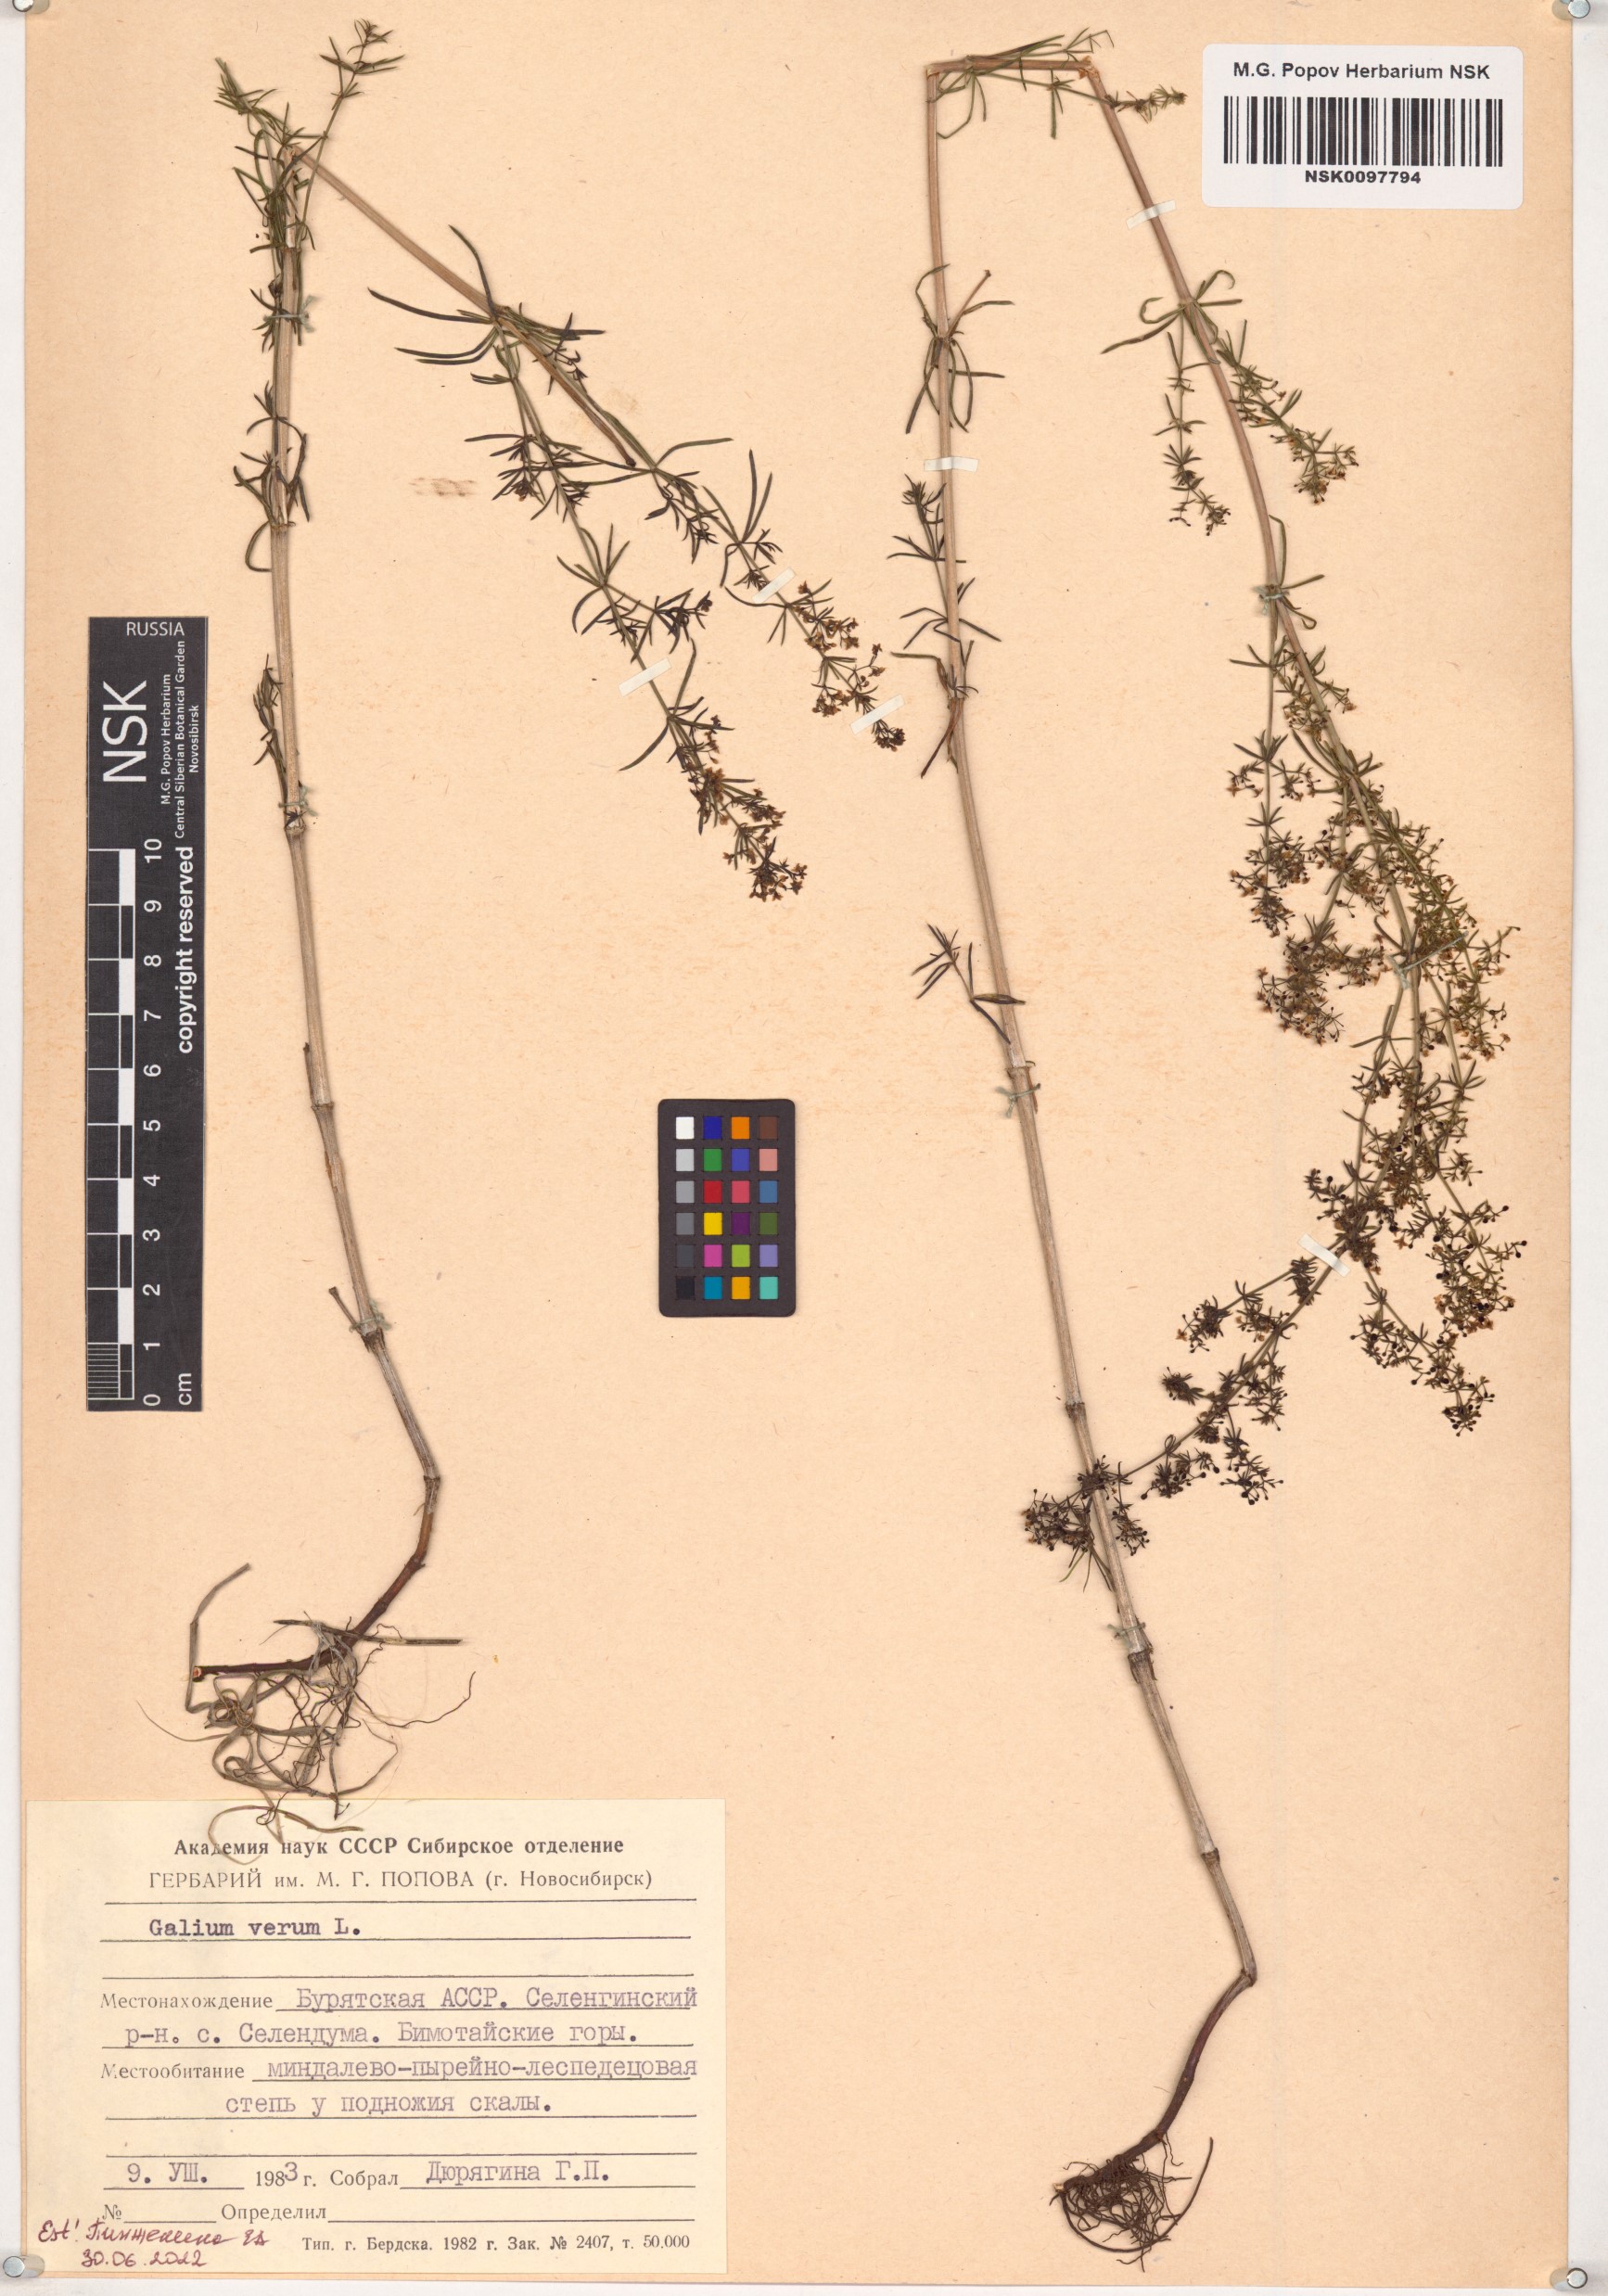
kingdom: Plantae
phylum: Tracheophyta
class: Magnoliopsida
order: Gentianales
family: Rubiaceae
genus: Galium
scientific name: Galium verum
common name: Lady's bedstraw
